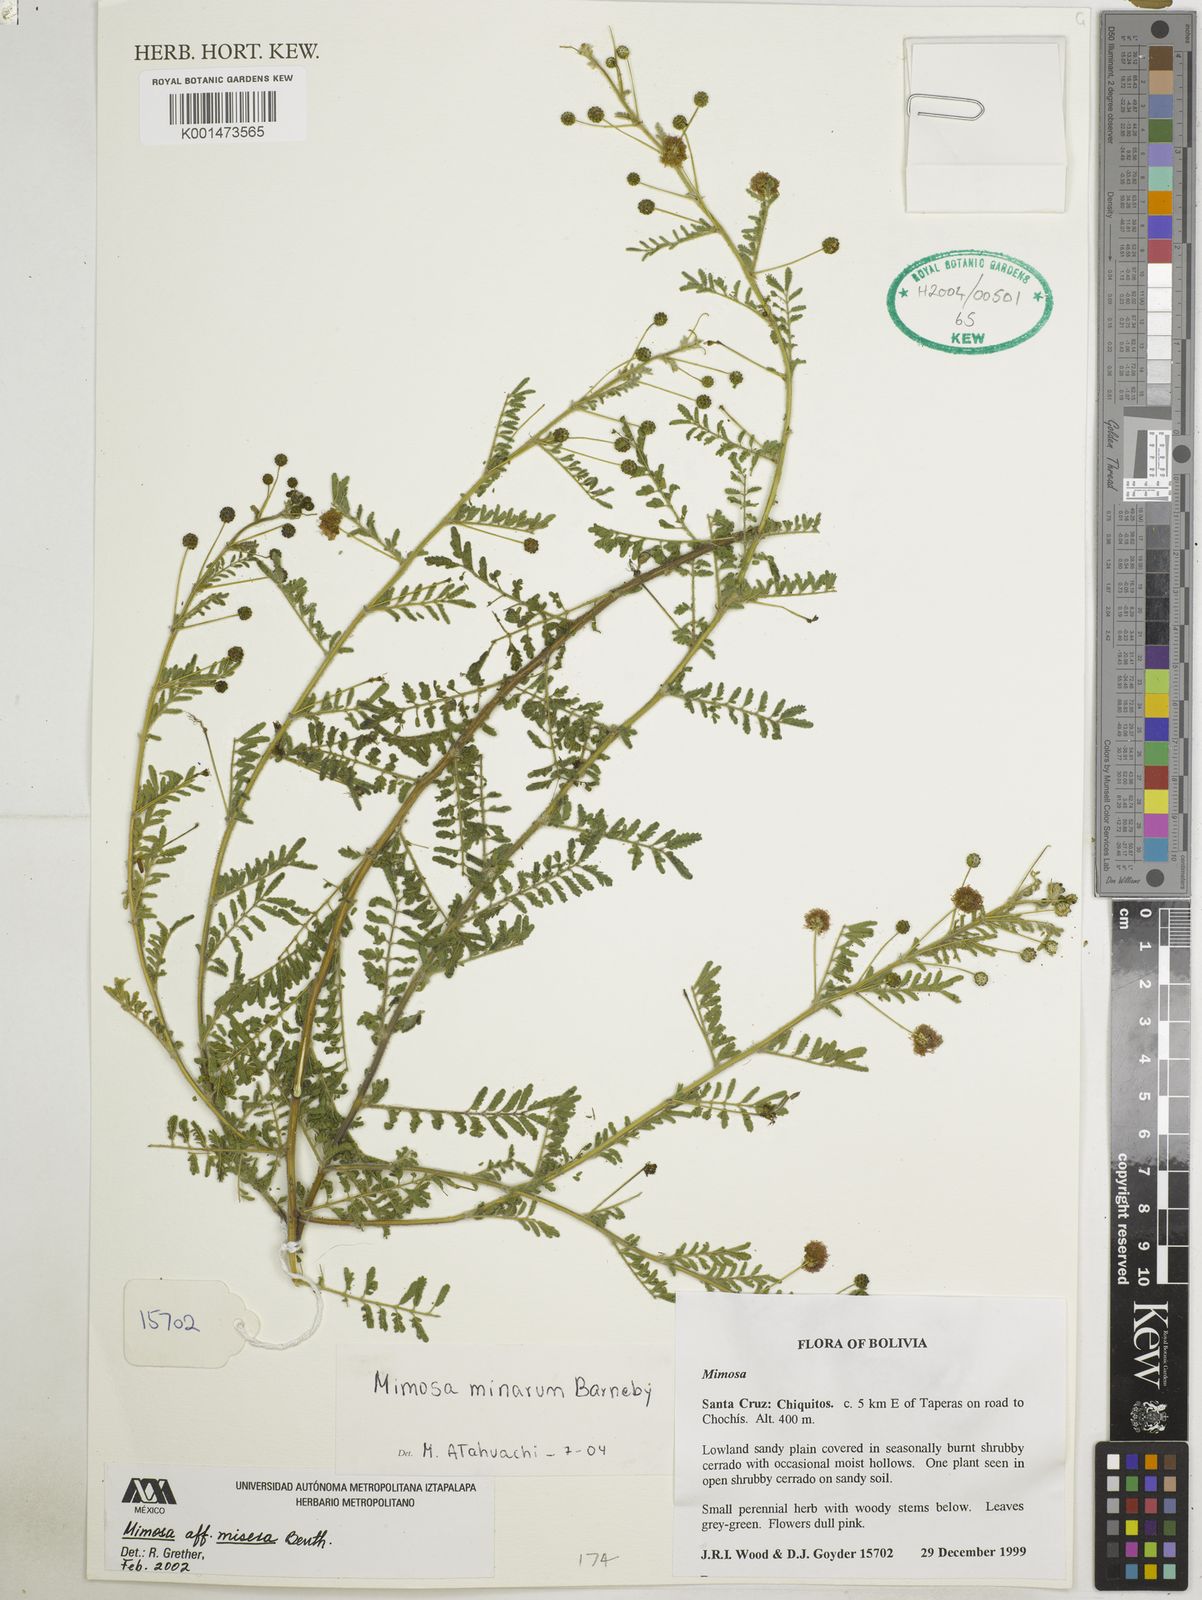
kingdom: Plantae
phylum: Tracheophyta
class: Magnoliopsida
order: Fabales
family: Fabaceae
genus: Mimosa
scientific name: Mimosa minarum
